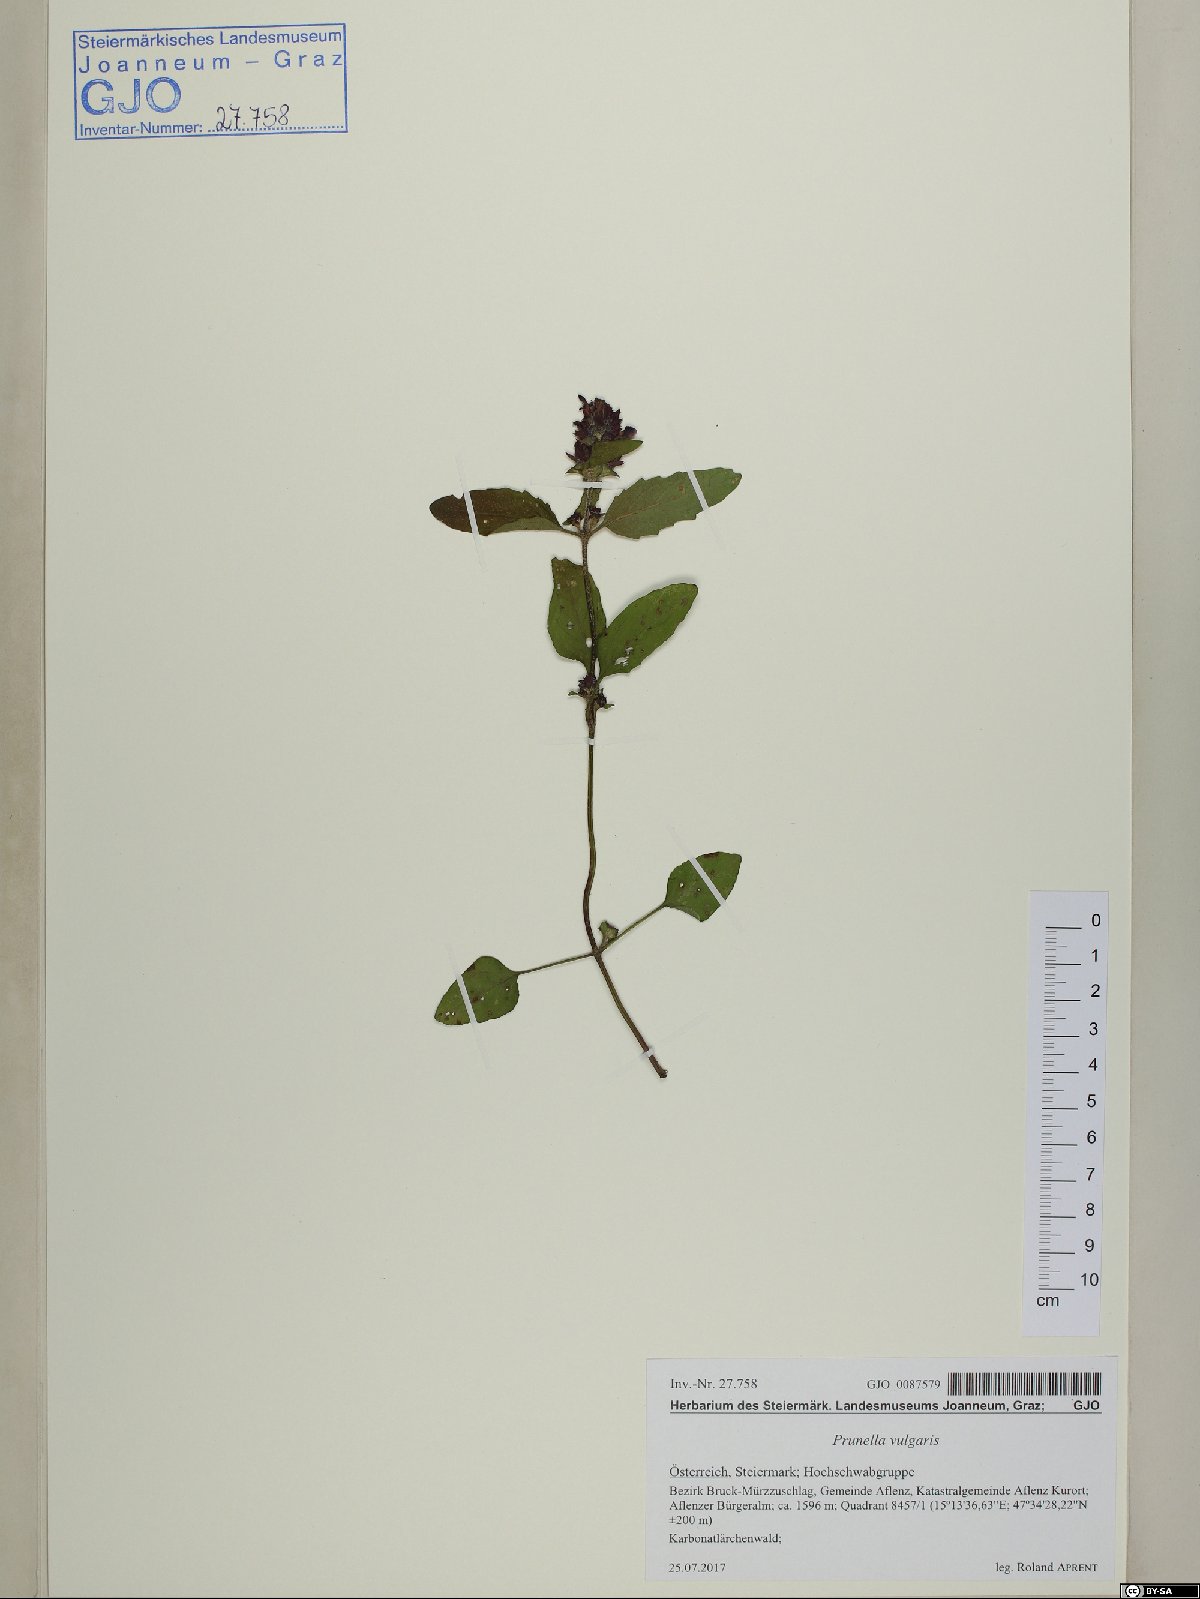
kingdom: Plantae
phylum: Tracheophyta
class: Magnoliopsida
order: Lamiales
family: Lamiaceae
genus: Prunella
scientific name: Prunella vulgaris
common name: Heal-all
